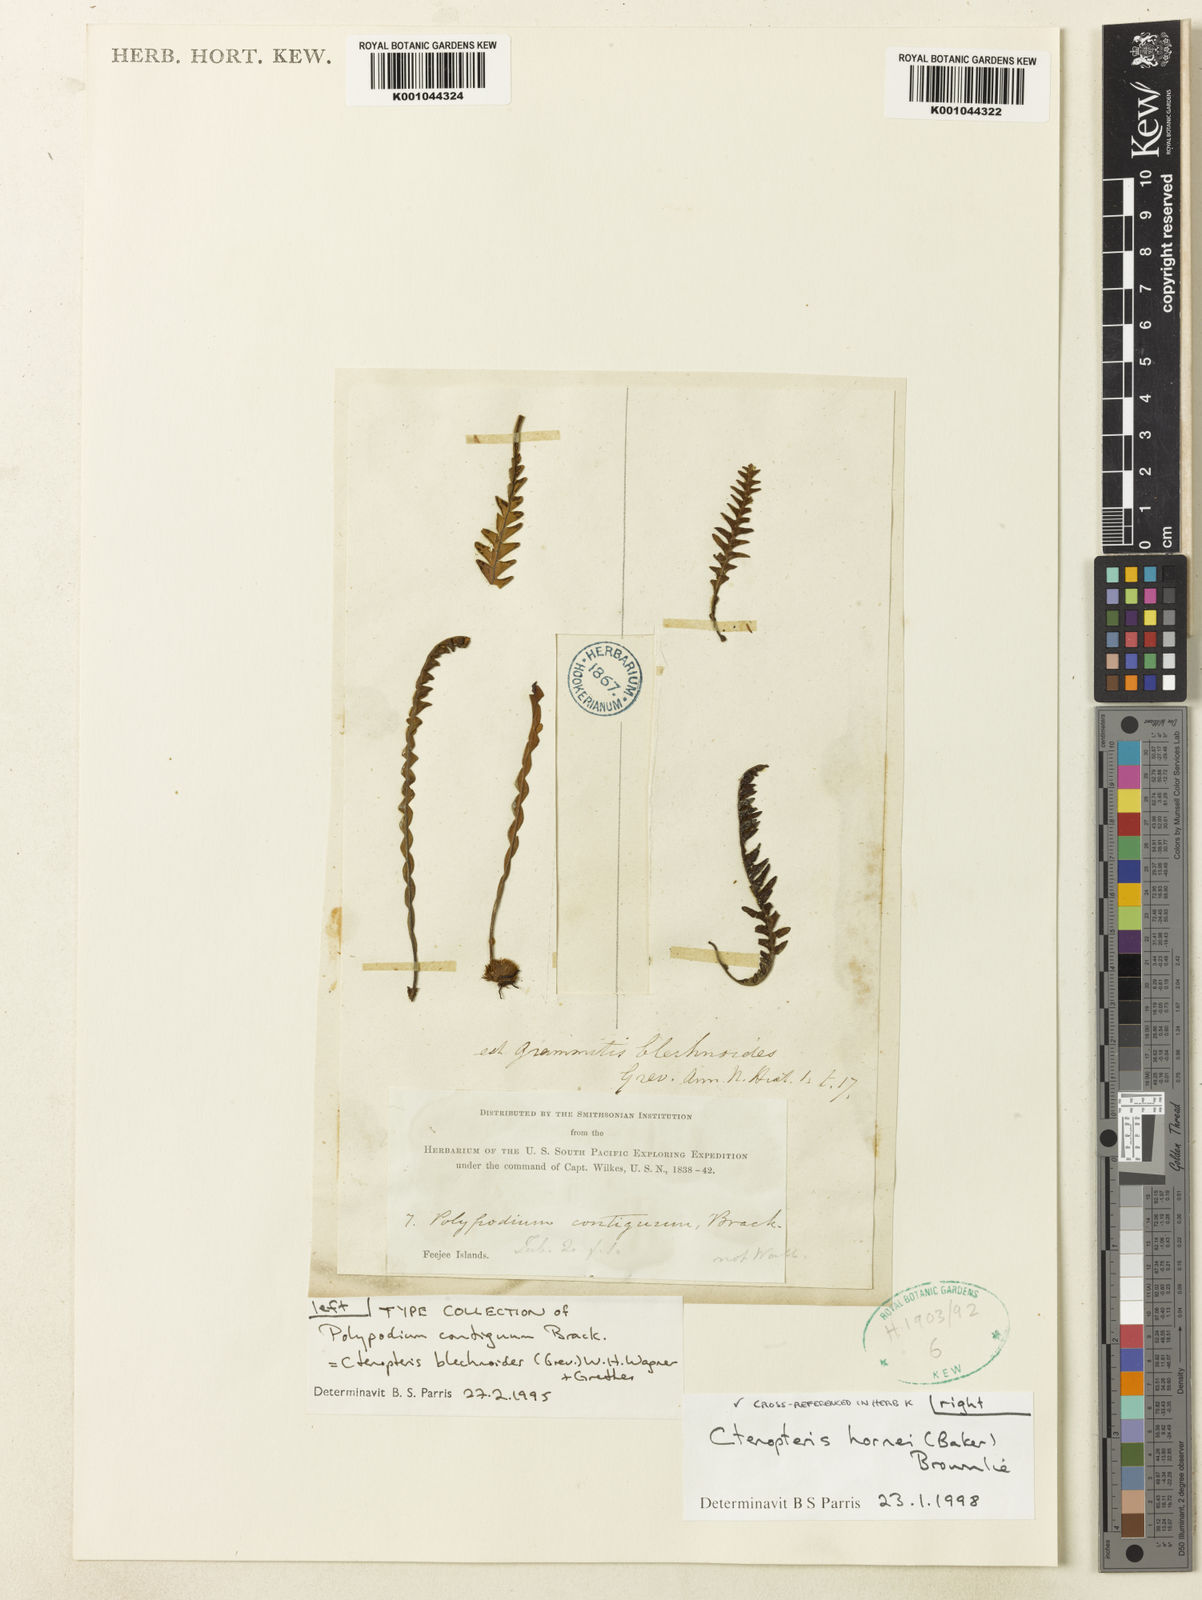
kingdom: Plantae
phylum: Tracheophyta
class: Polypodiopsida
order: Polypodiales
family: Polypodiaceae
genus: Ctenopterella
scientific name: Ctenopterella blechnoides
